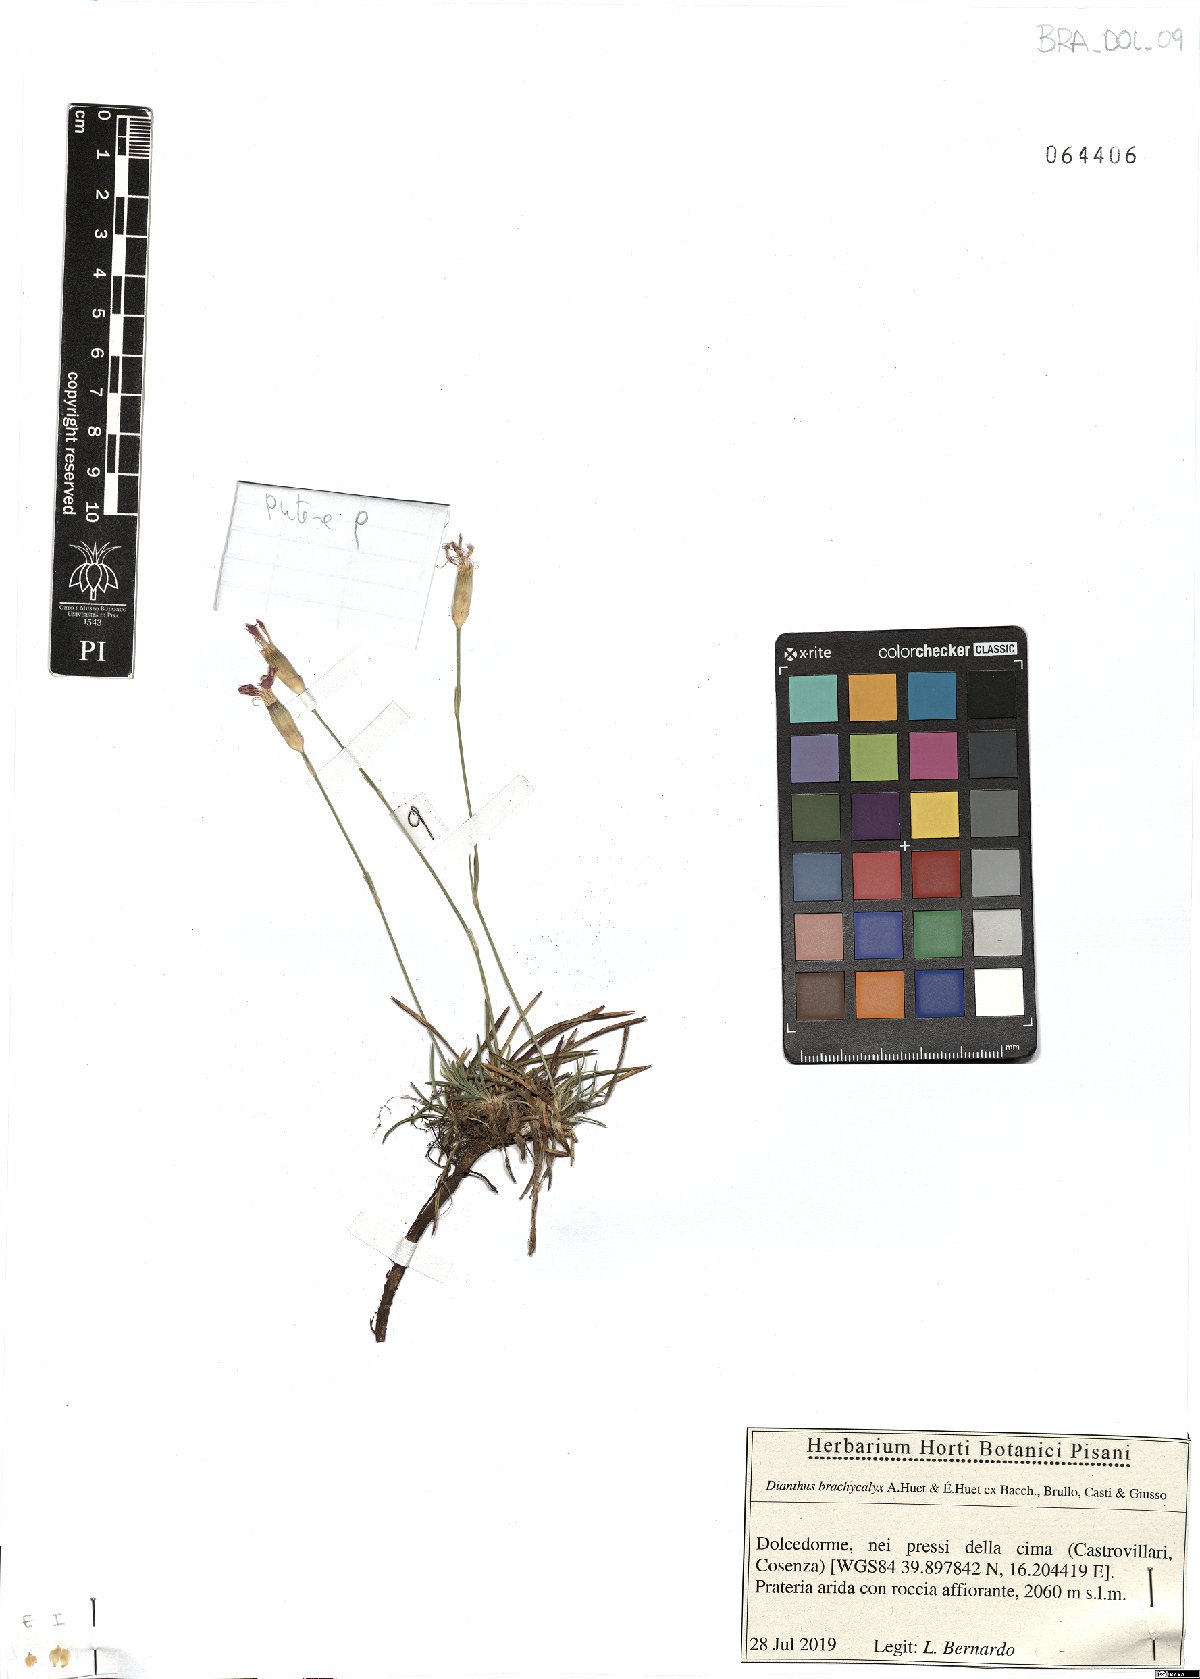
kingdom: Plantae
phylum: Tracheophyta
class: Magnoliopsida
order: Caryophyllales
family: Caryophyllaceae
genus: Dianthus
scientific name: Dianthus brachycalyx
